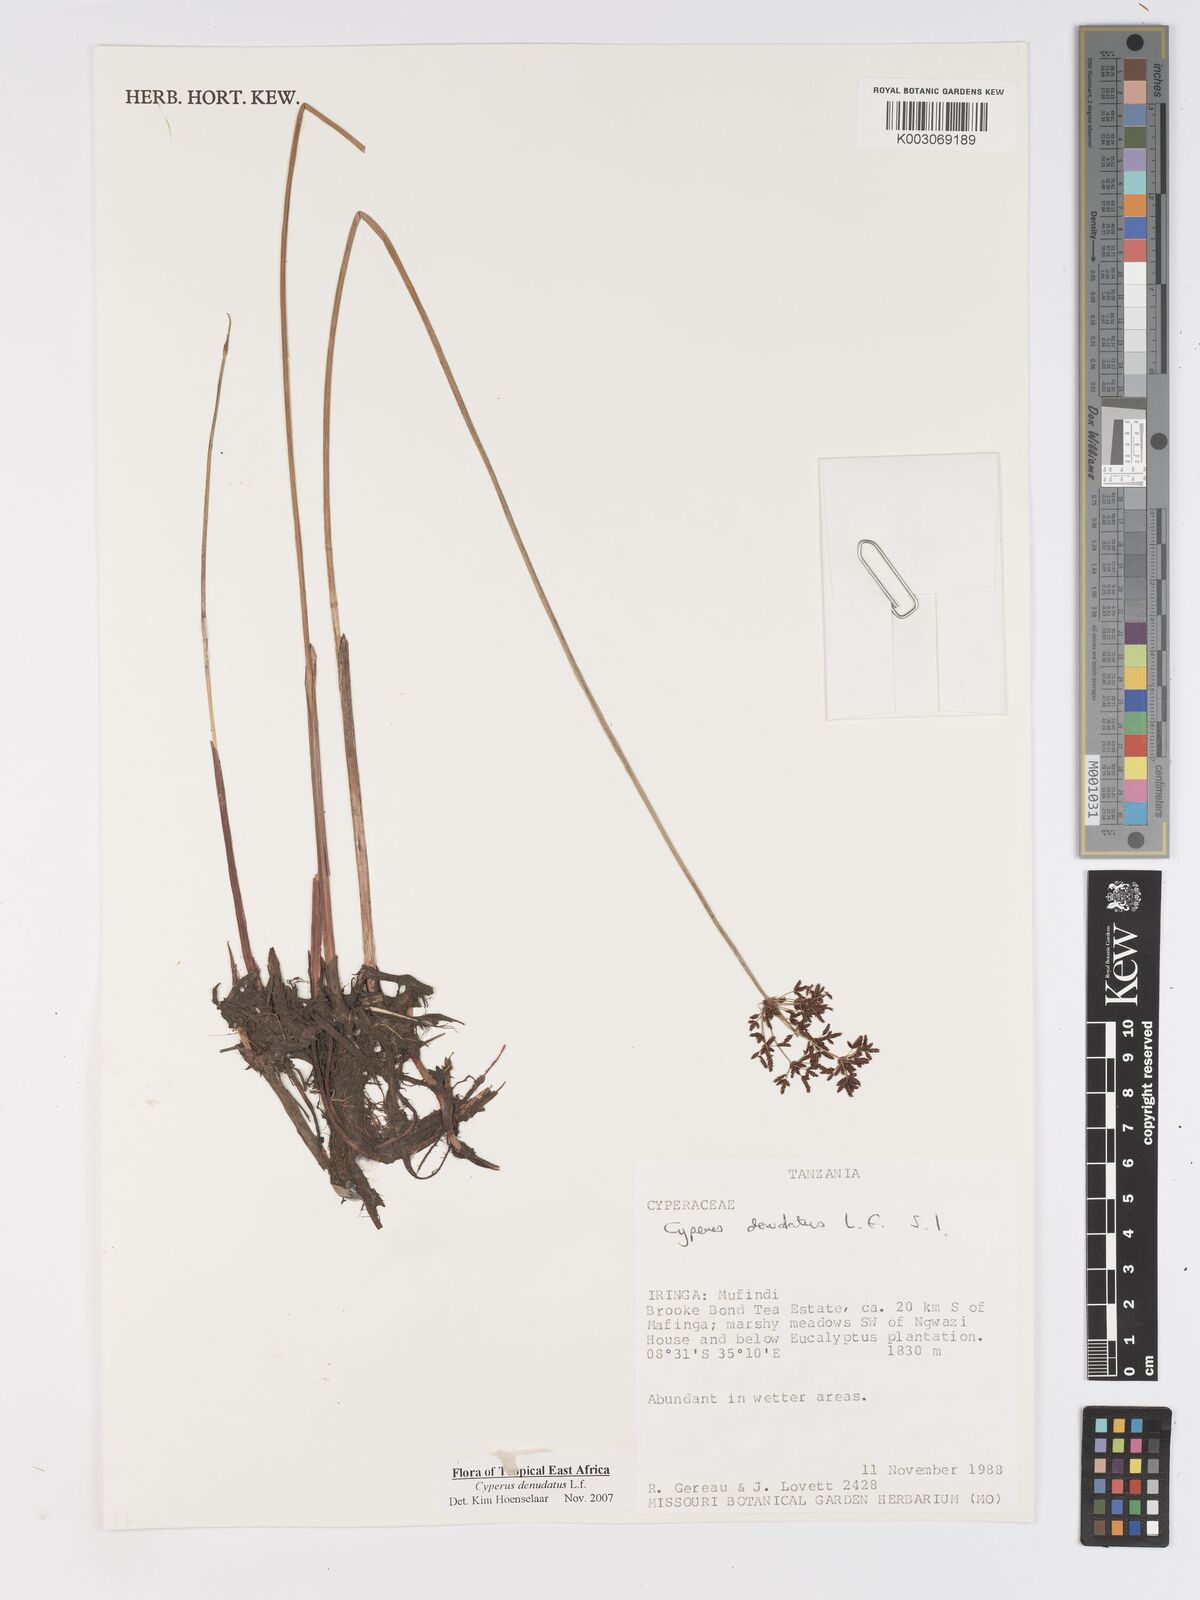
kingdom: Plantae
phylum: Tracheophyta
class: Liliopsida
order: Poales
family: Cyperaceae
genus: Cyperus
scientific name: Cyperus denudatus
